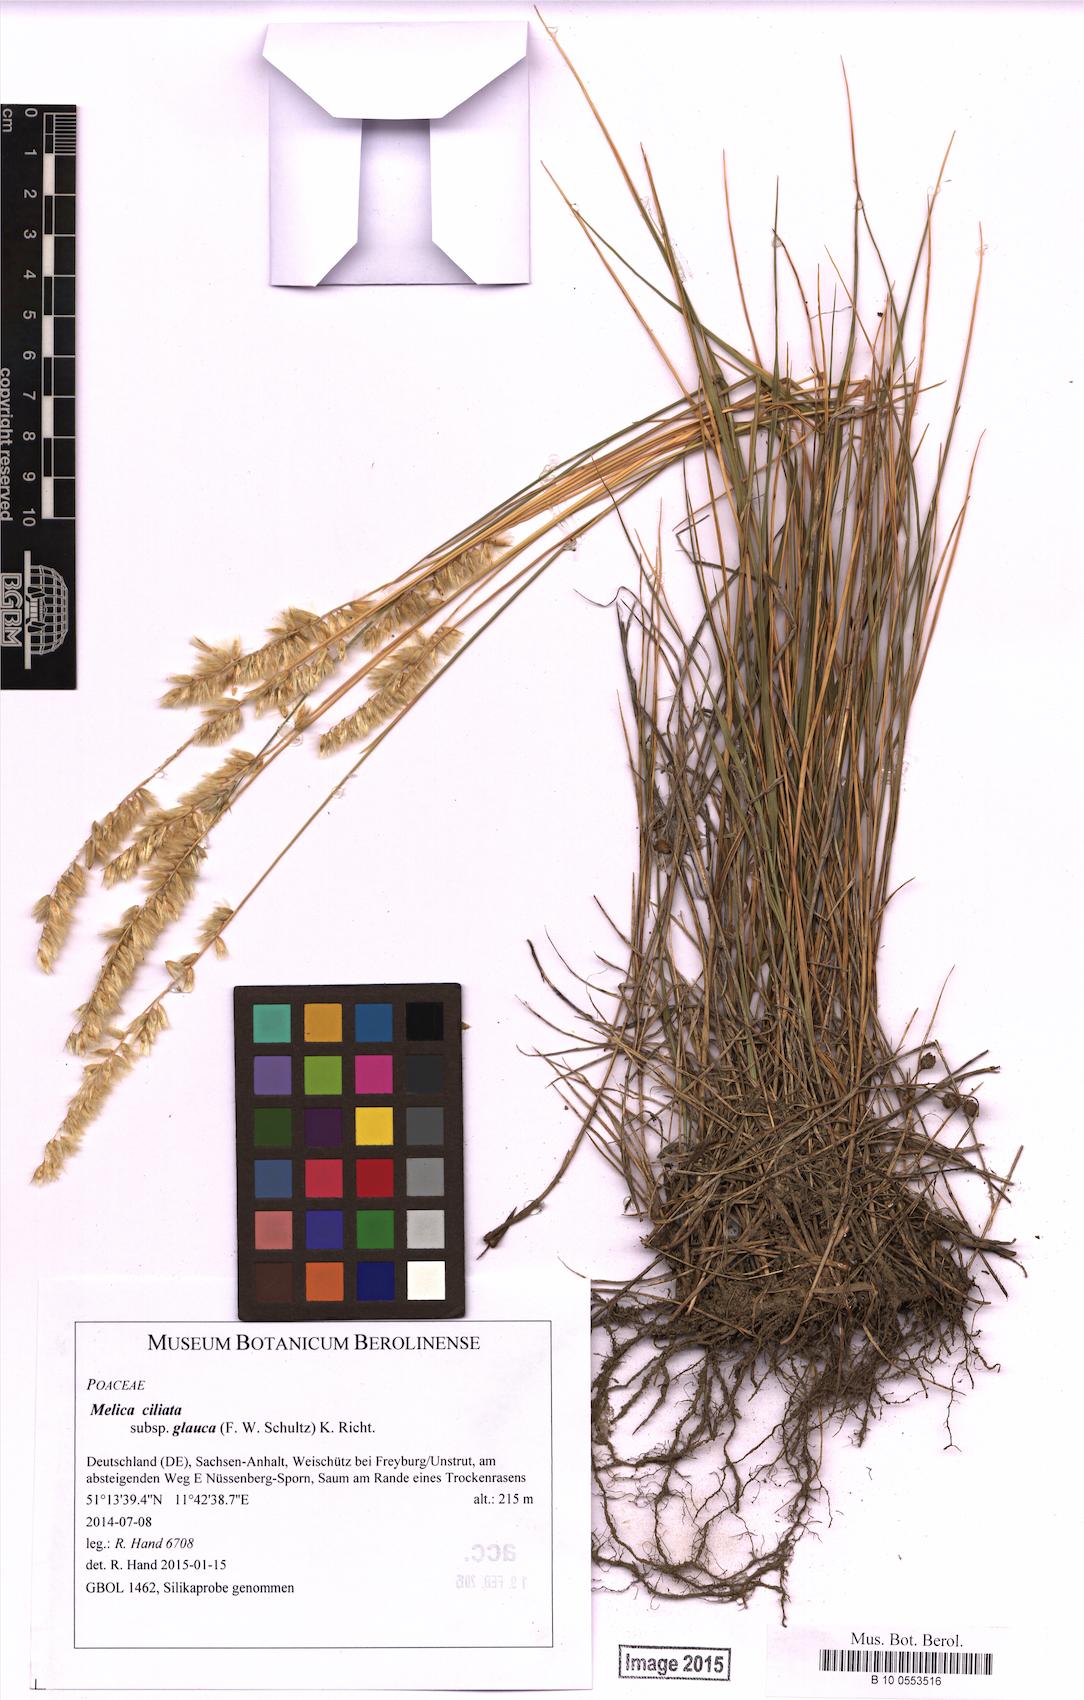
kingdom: Plantae
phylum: Tracheophyta
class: Liliopsida
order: Poales
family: Poaceae
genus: Melica
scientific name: Melica ciliata
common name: Hairy melicgrass
